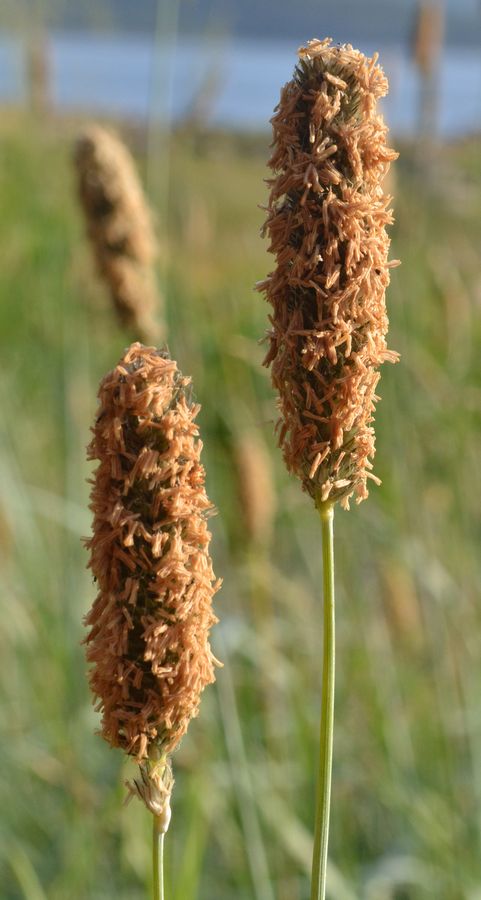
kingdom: Plantae
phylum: Tracheophyta
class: Liliopsida
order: Poales
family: Poaceae
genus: Alopecurus
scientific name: Alopecurus arundinaceus
